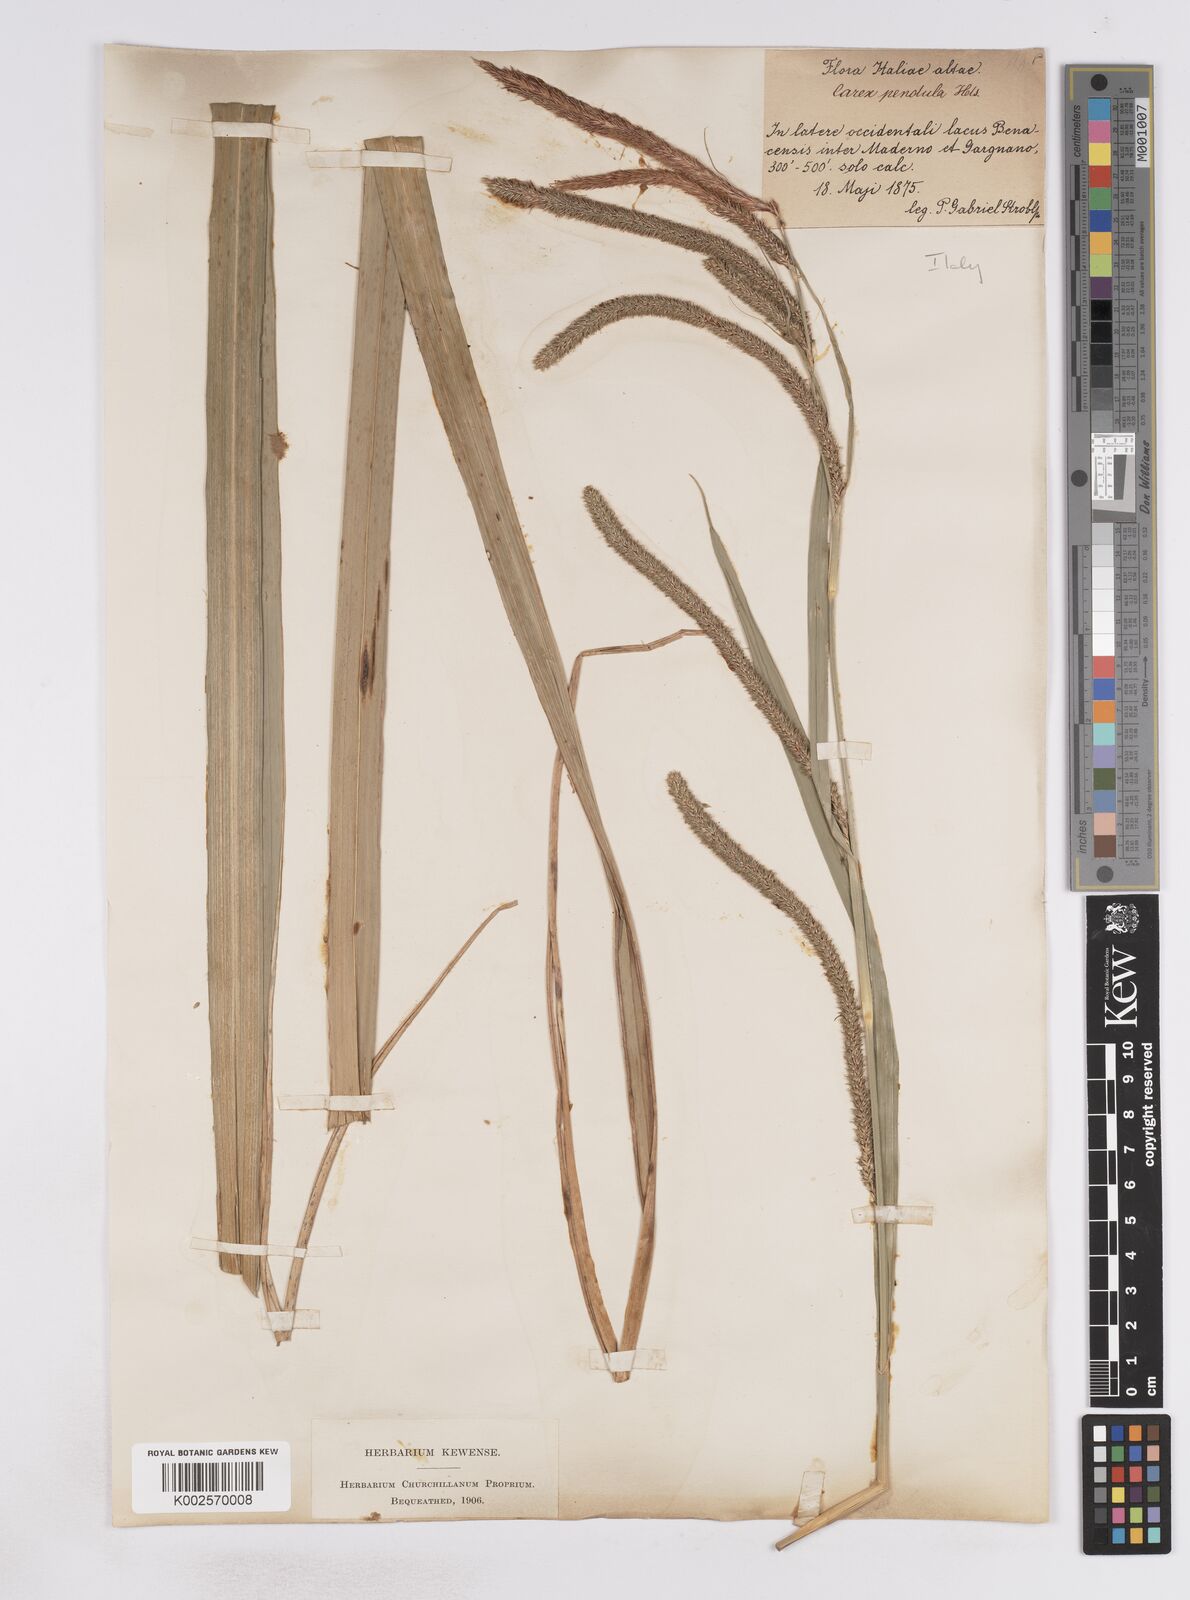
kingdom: Plantae
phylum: Tracheophyta
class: Liliopsida
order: Poales
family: Cyperaceae
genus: Carex
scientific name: Carex pendula
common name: Pendulous sedge
